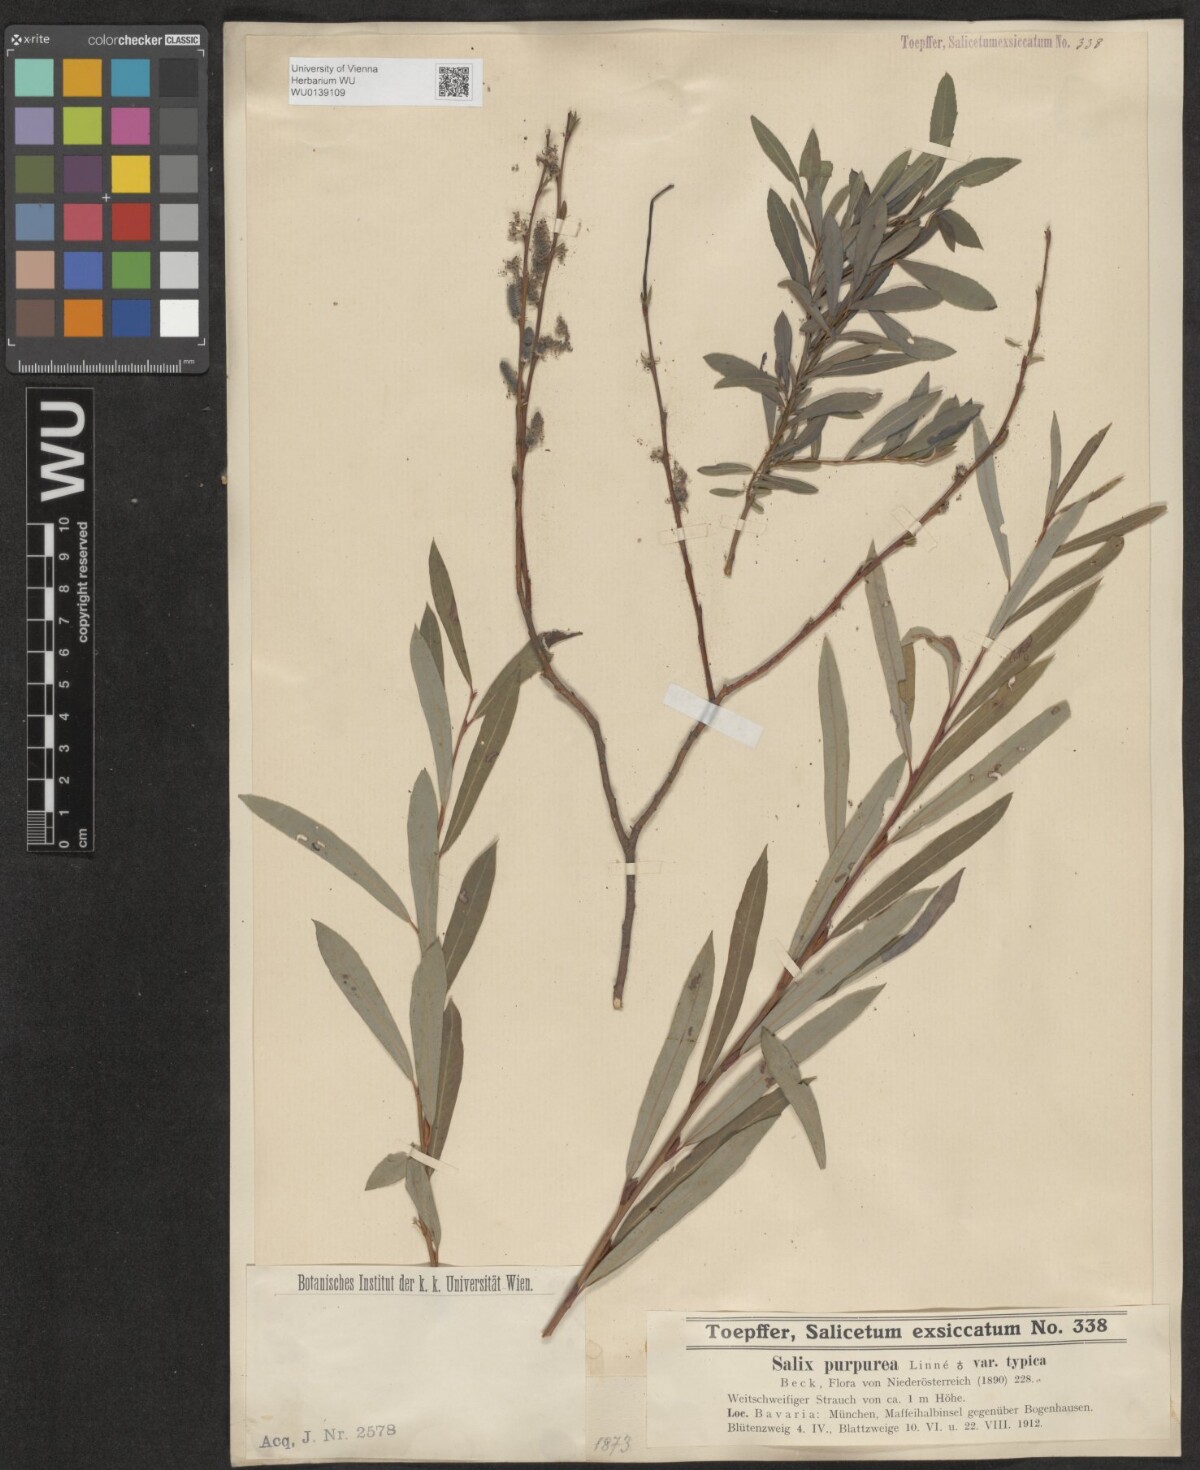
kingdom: Plantae
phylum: Tracheophyta
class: Magnoliopsida
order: Malpighiales
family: Salicaceae
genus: Salix
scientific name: Salix purpurea
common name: Purple willow
